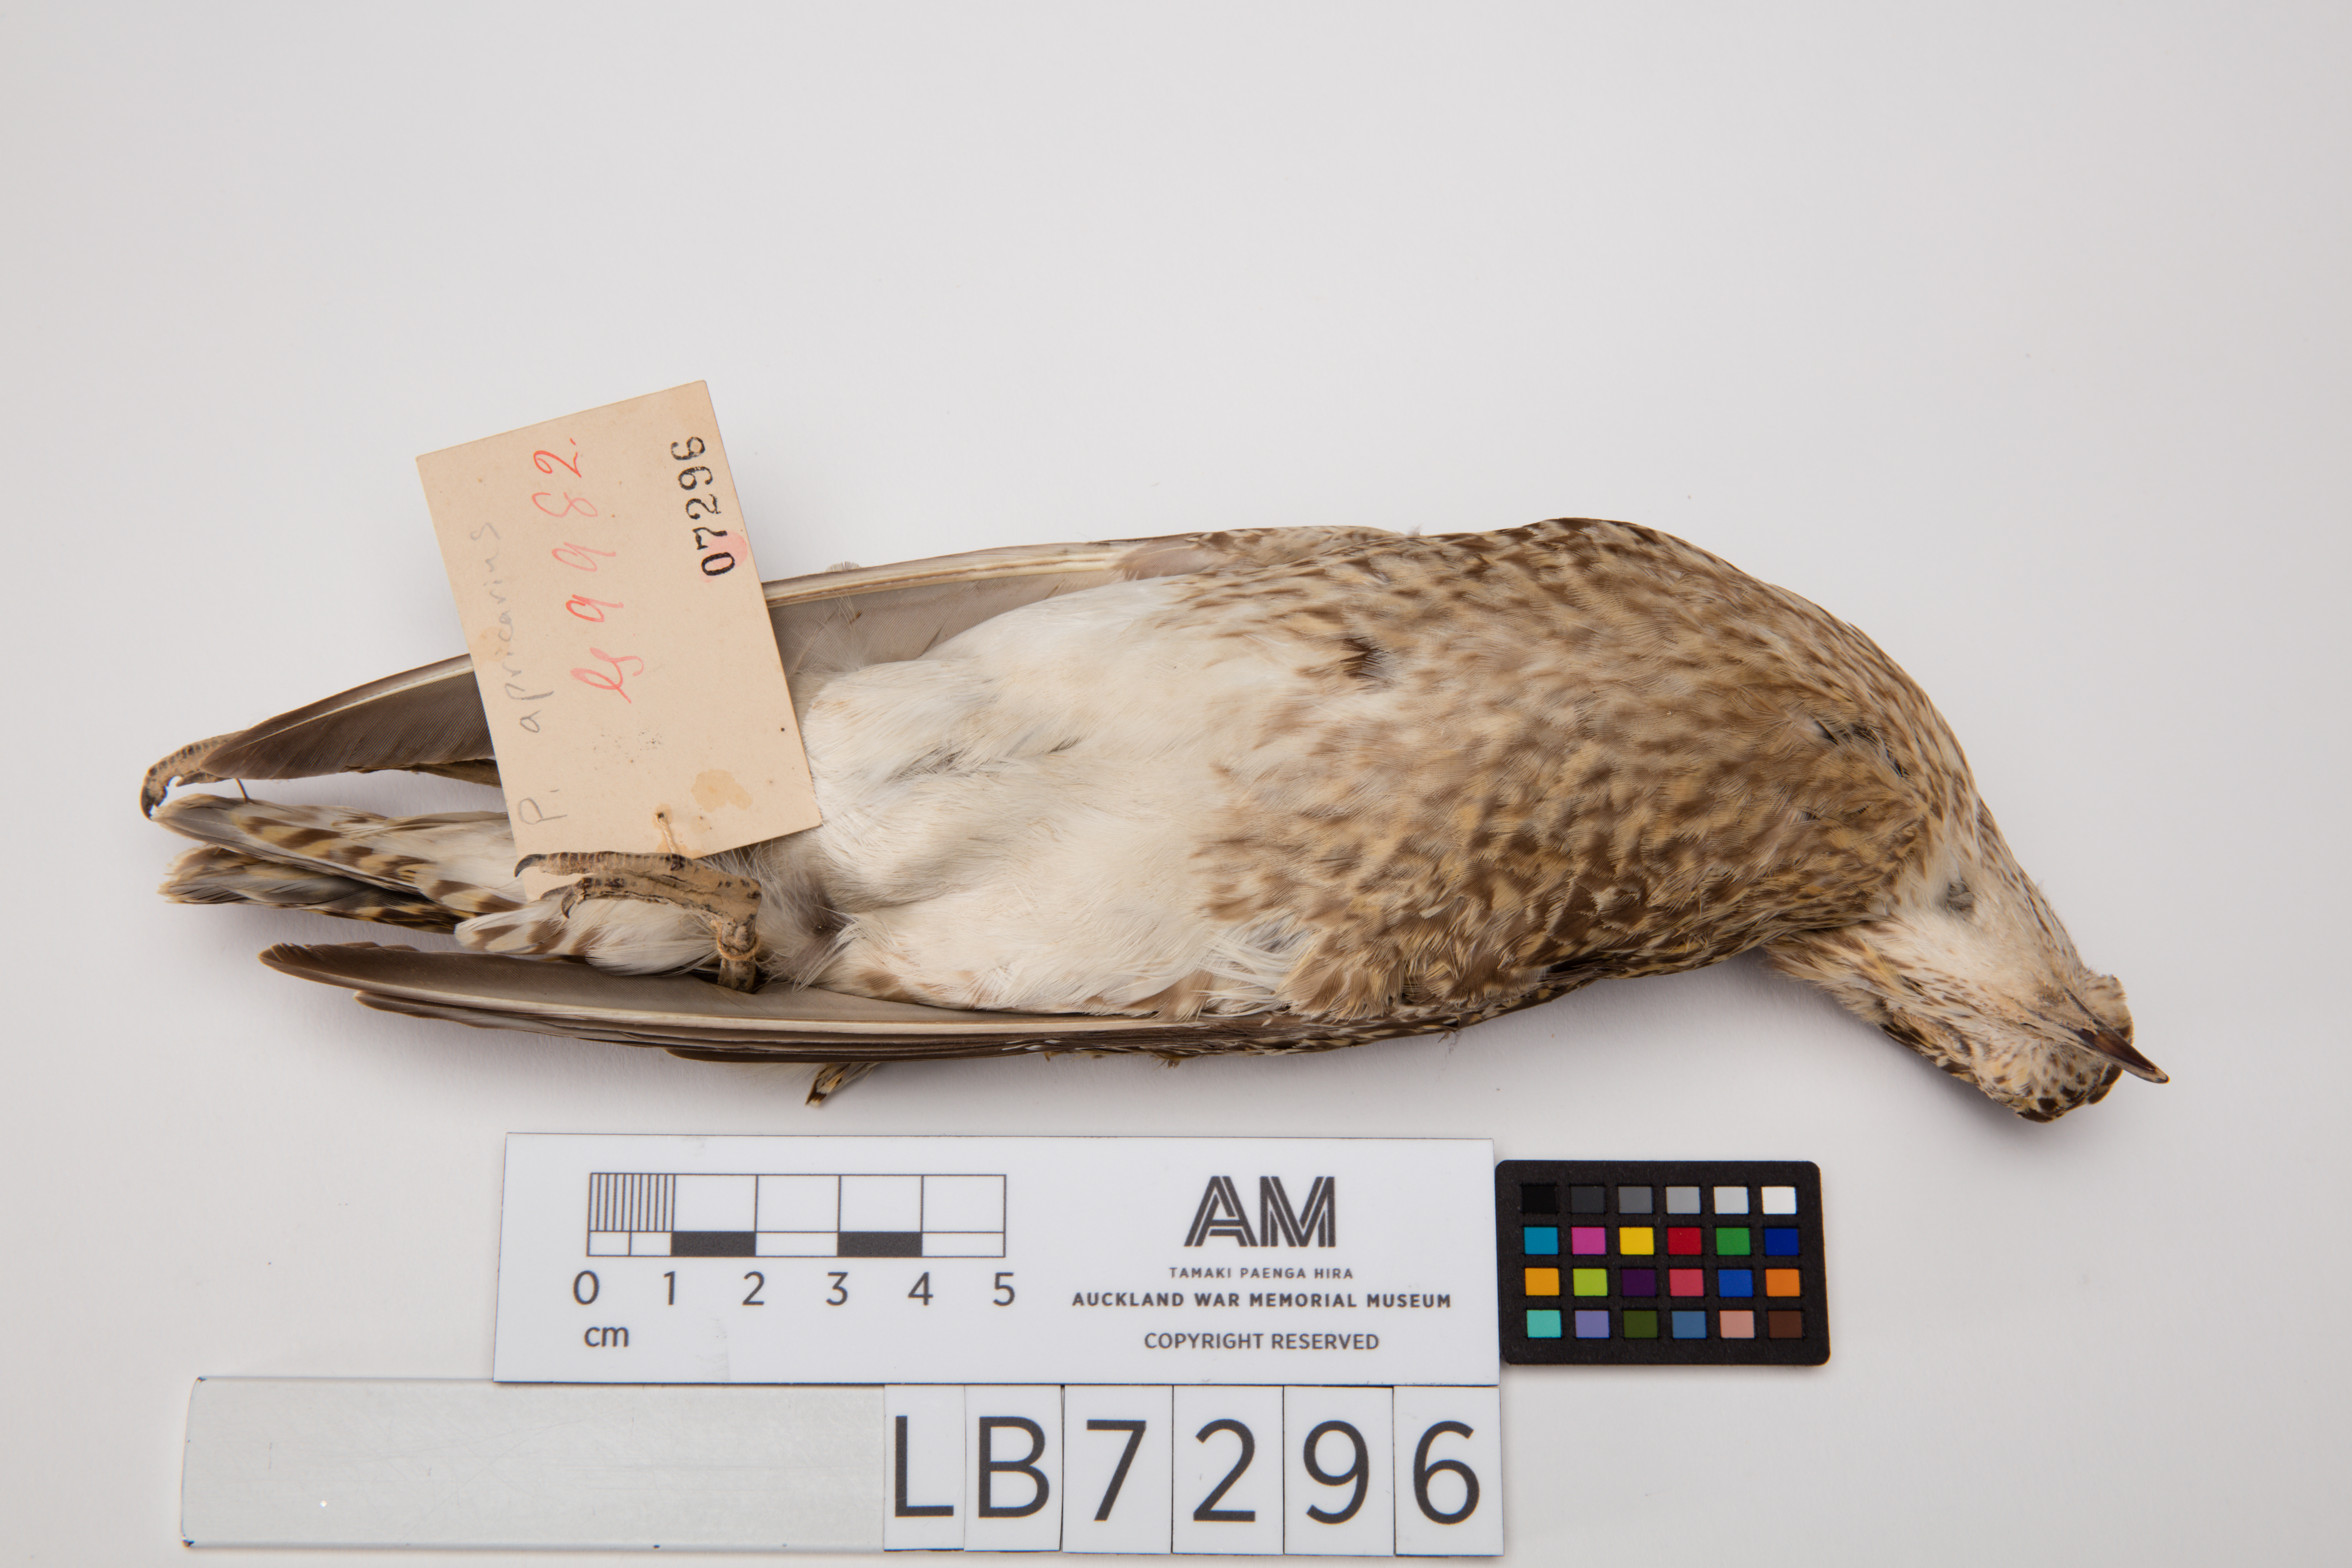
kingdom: Animalia
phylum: Chordata
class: Aves
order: Charadriiformes
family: Charadriidae
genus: Pluvialis
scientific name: Pluvialis apricaria
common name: European golden plover
